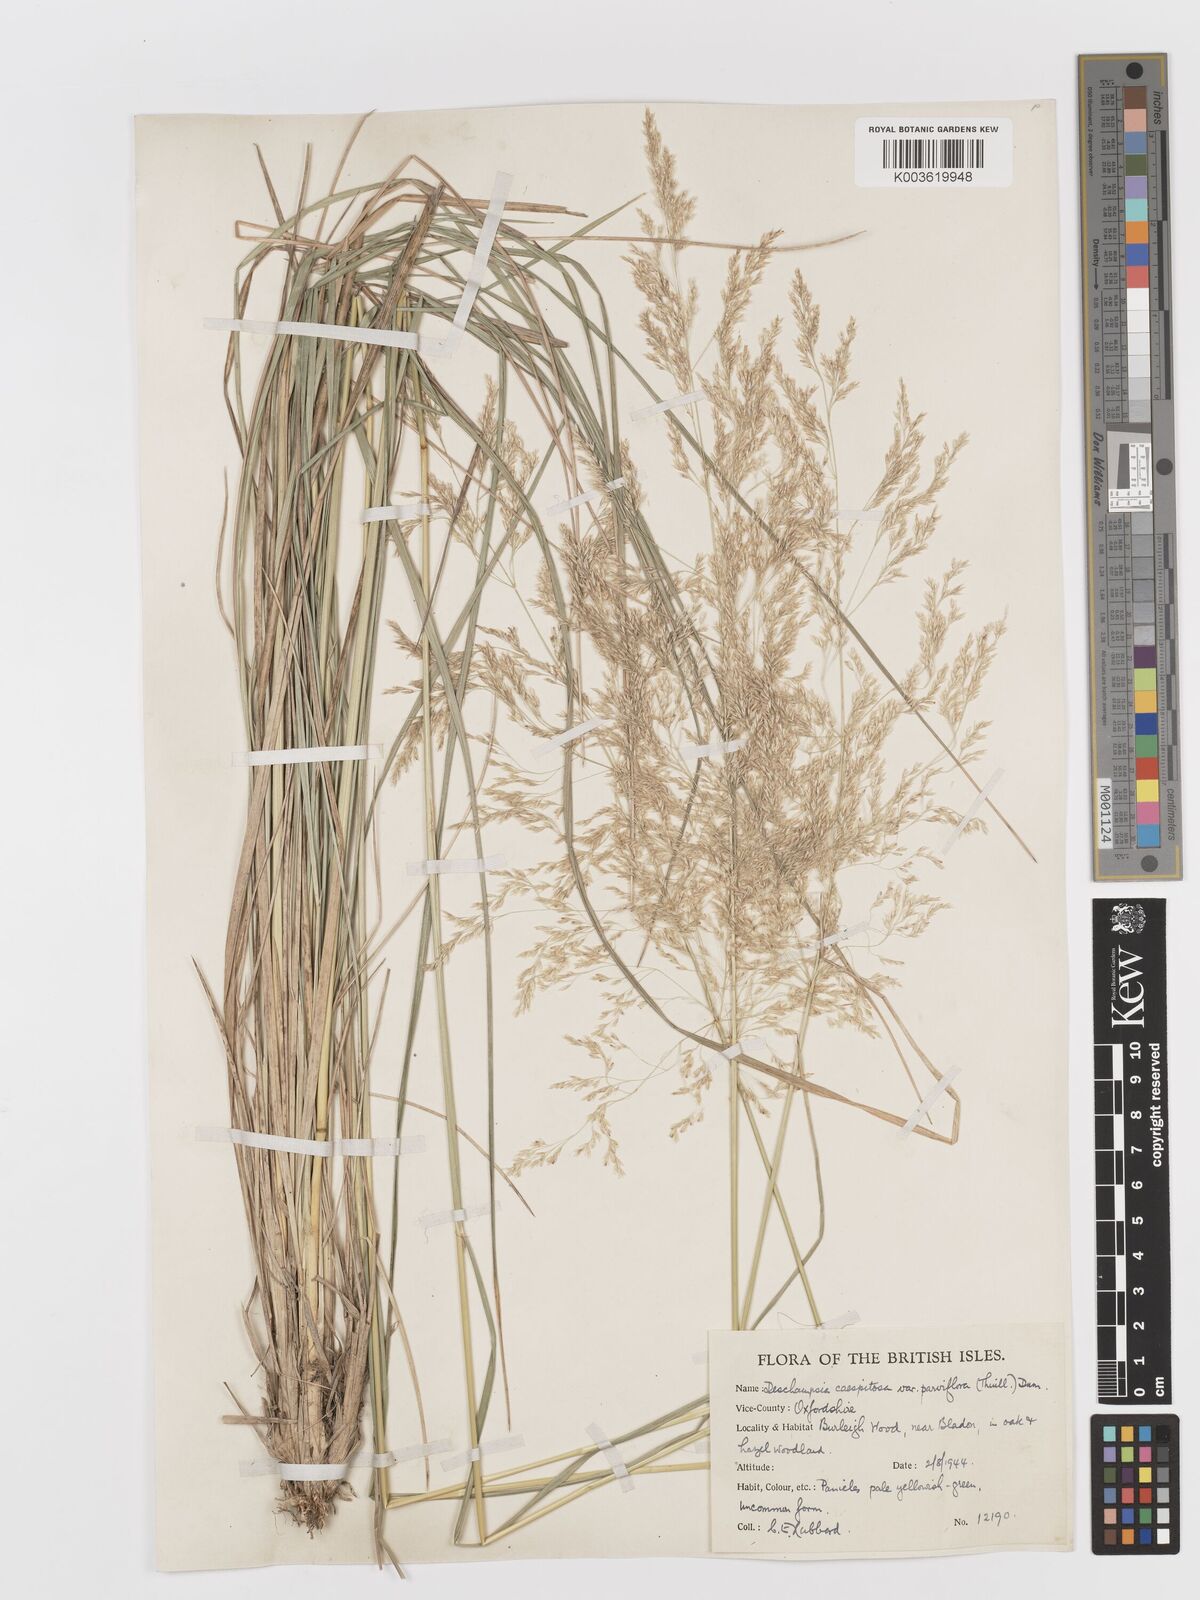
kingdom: Plantae
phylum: Tracheophyta
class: Liliopsida
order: Poales
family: Poaceae
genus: Deschampsia
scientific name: Deschampsia
